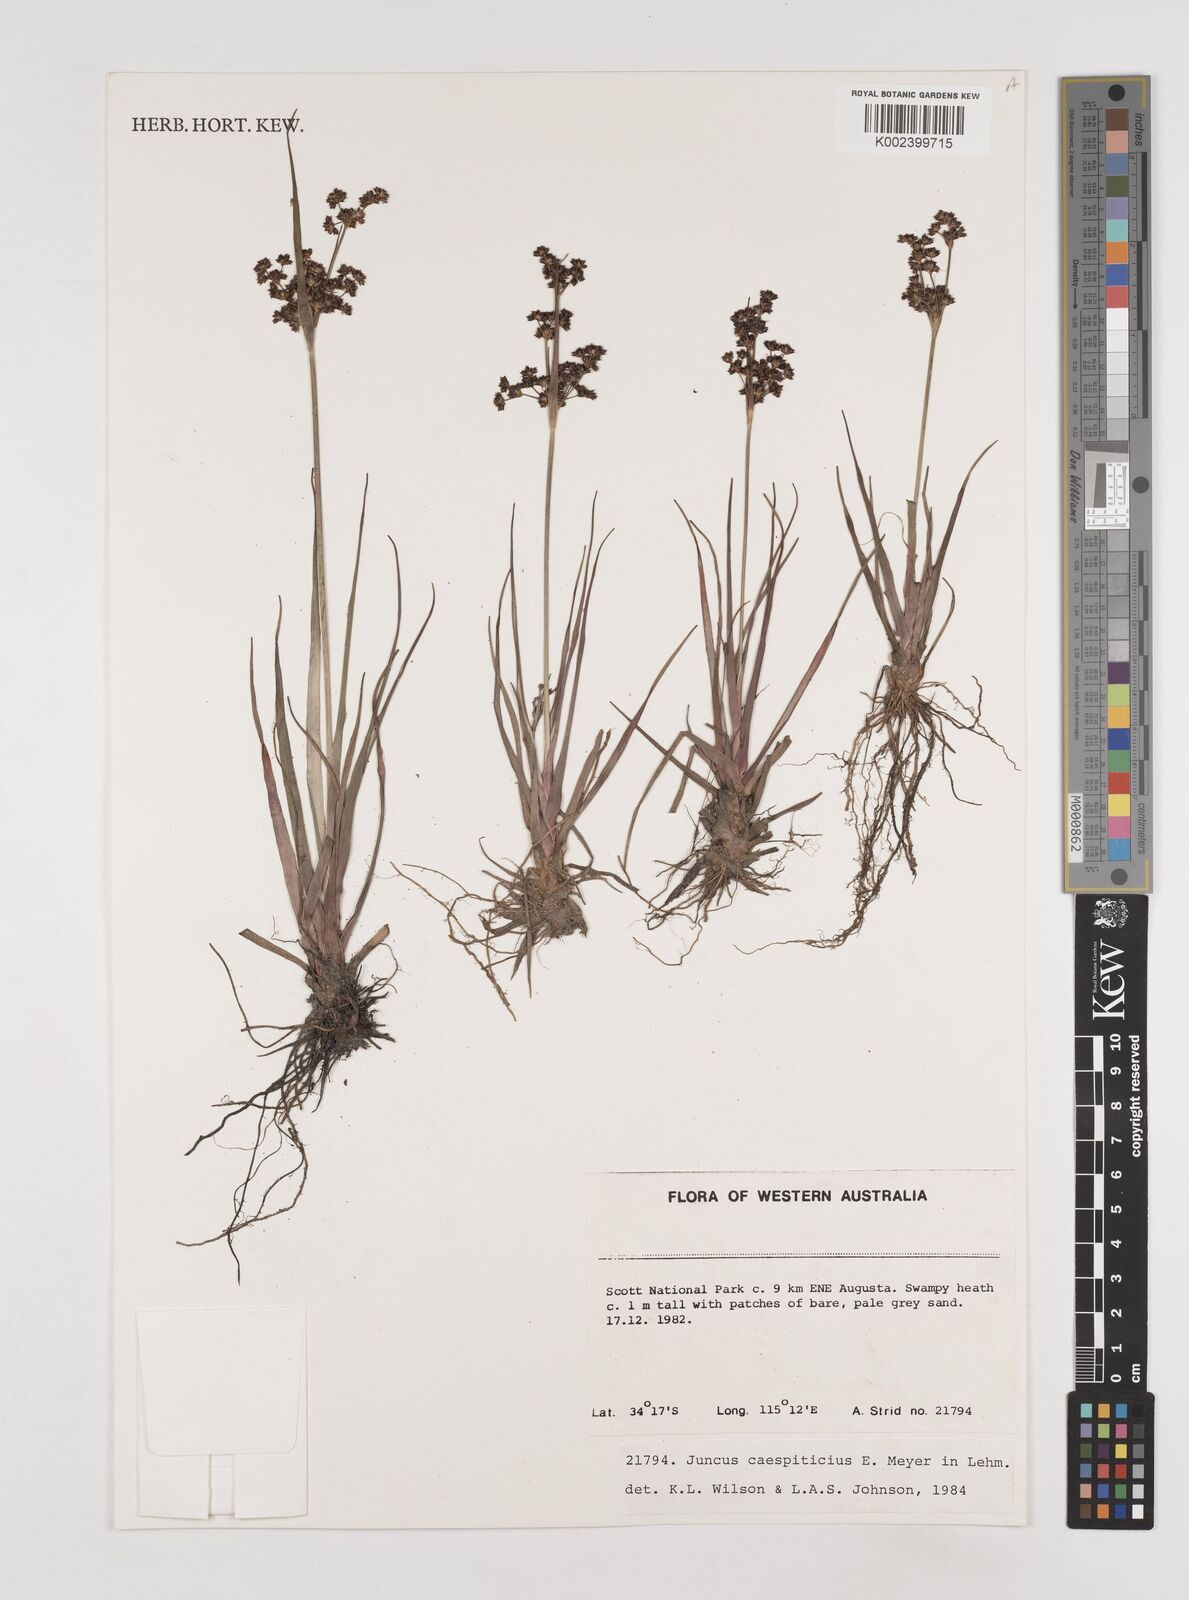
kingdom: Plantae
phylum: Tracheophyta
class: Liliopsida
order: Poales
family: Juncaceae
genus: Juncus
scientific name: Juncus caespiticius
